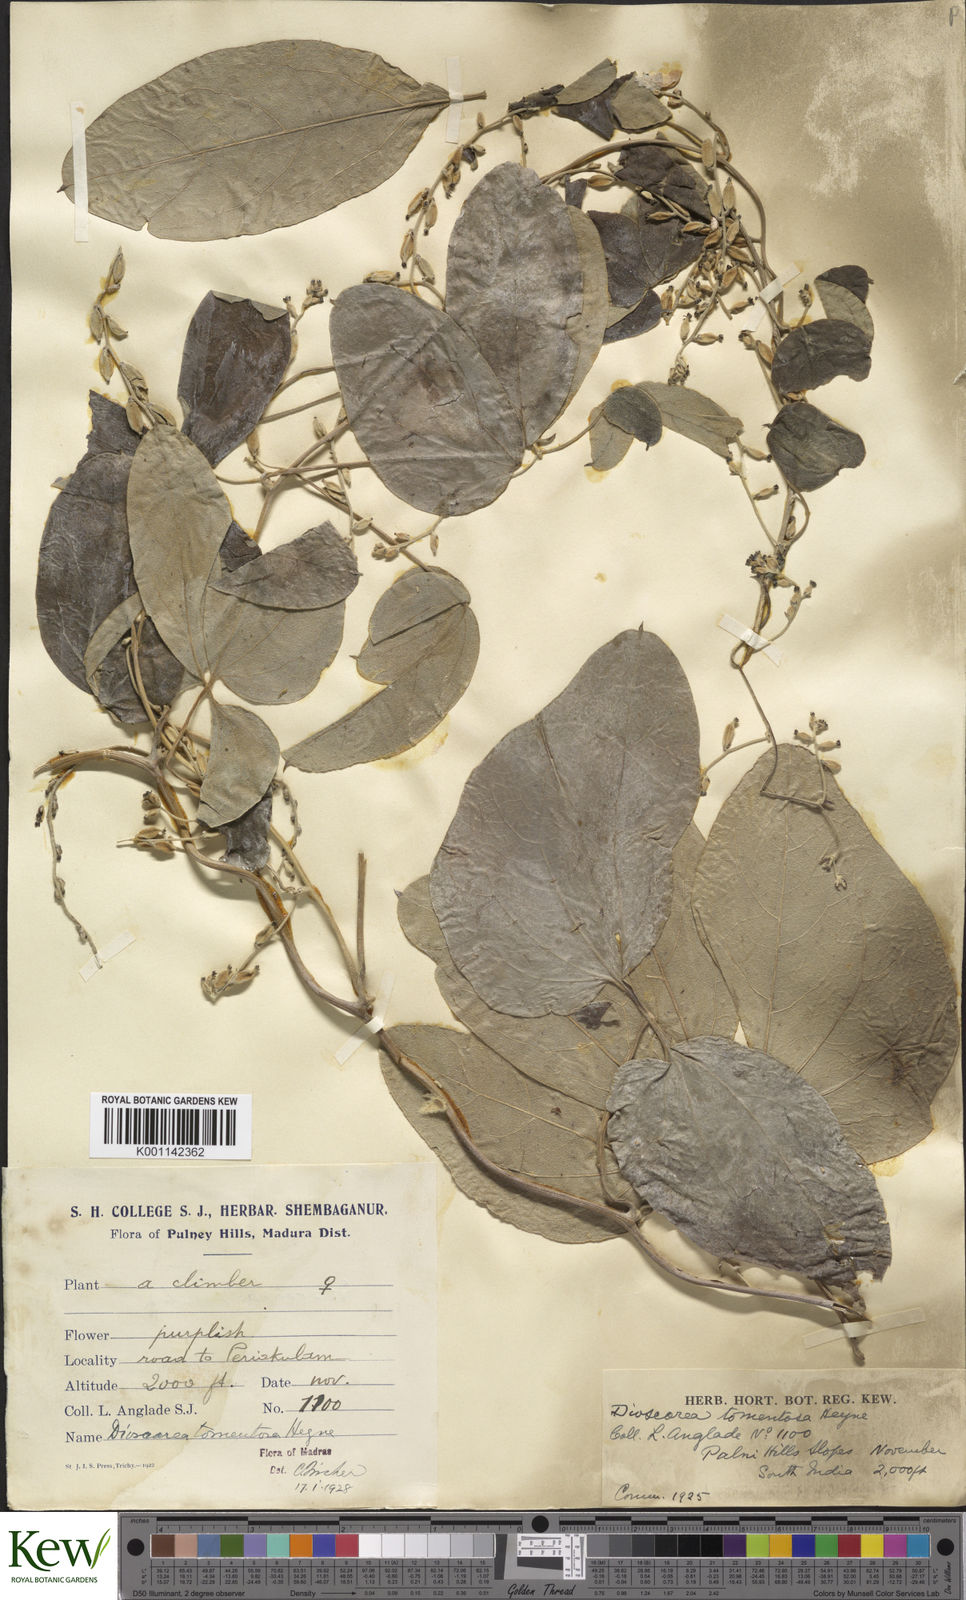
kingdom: Plantae
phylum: Tracheophyta
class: Liliopsida
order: Dioscoreales
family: Dioscoreaceae
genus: Dioscorea
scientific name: Dioscorea
